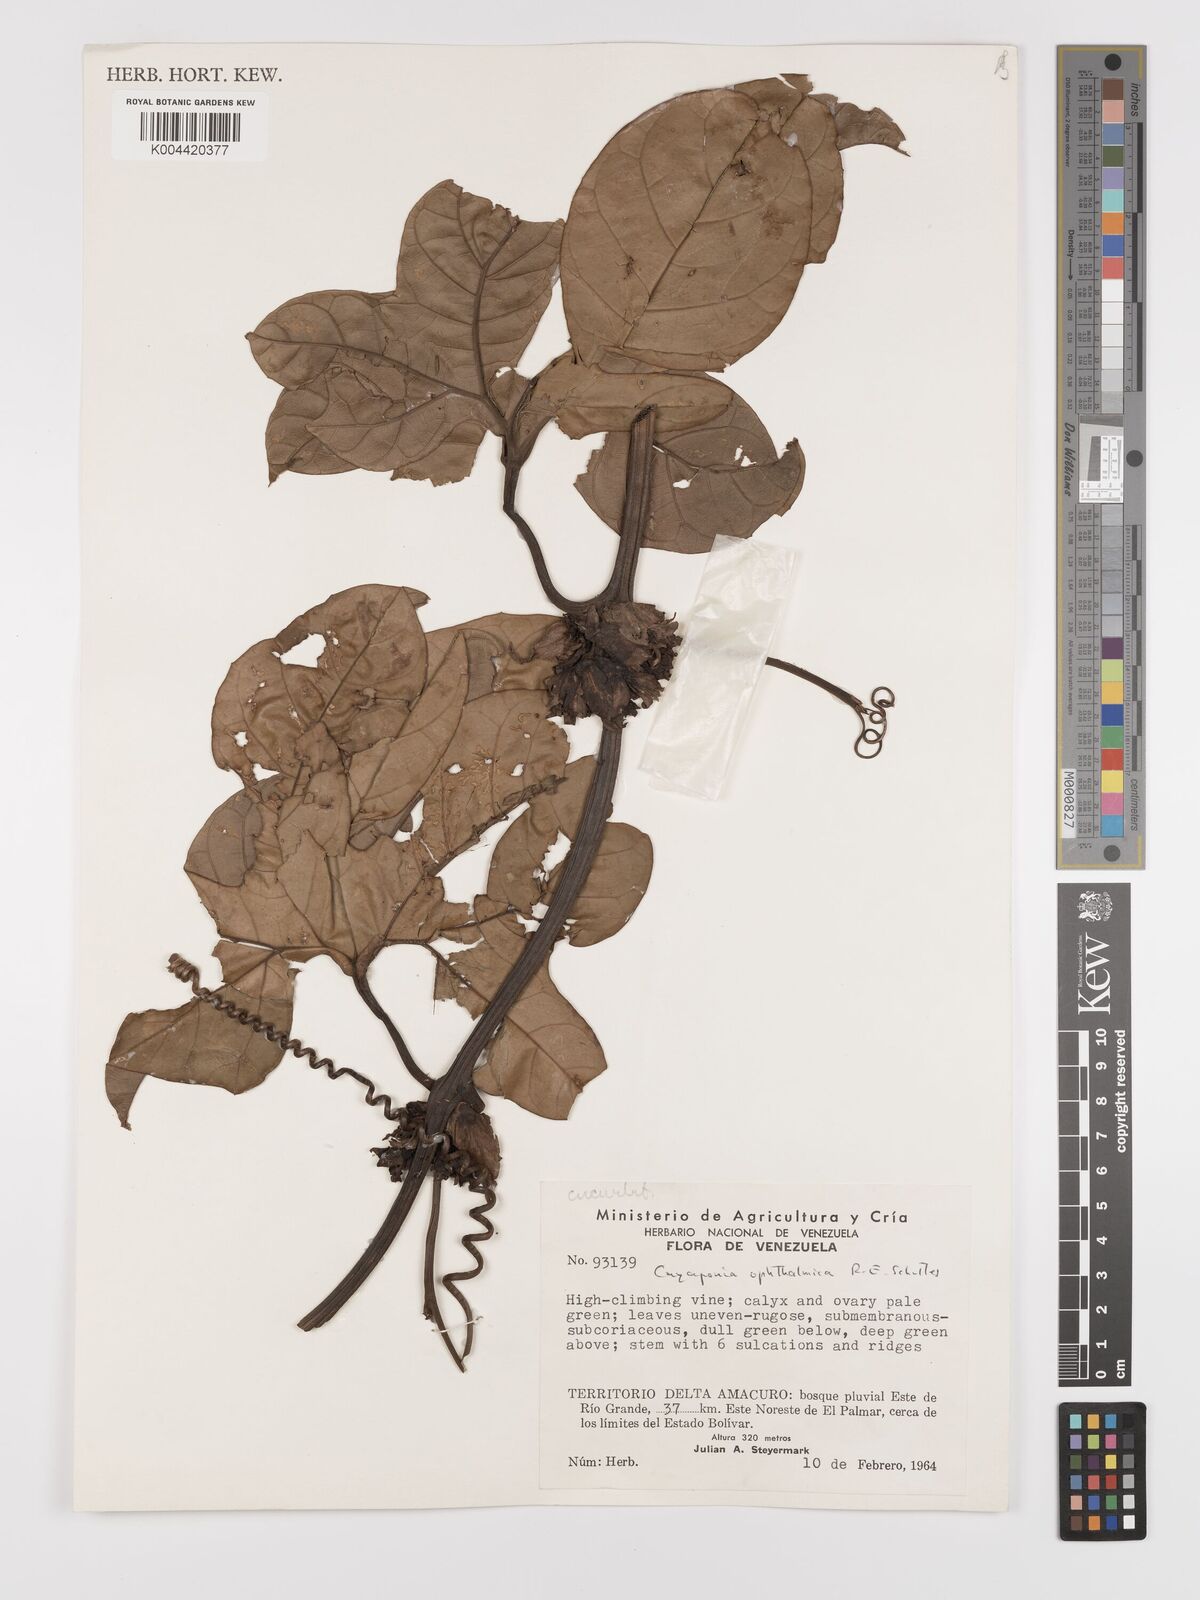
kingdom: Plantae
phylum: Tracheophyta
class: Magnoliopsida
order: Cucurbitales
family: Cucurbitaceae
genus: Cayaponia
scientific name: Cayaponia ophthalmica
